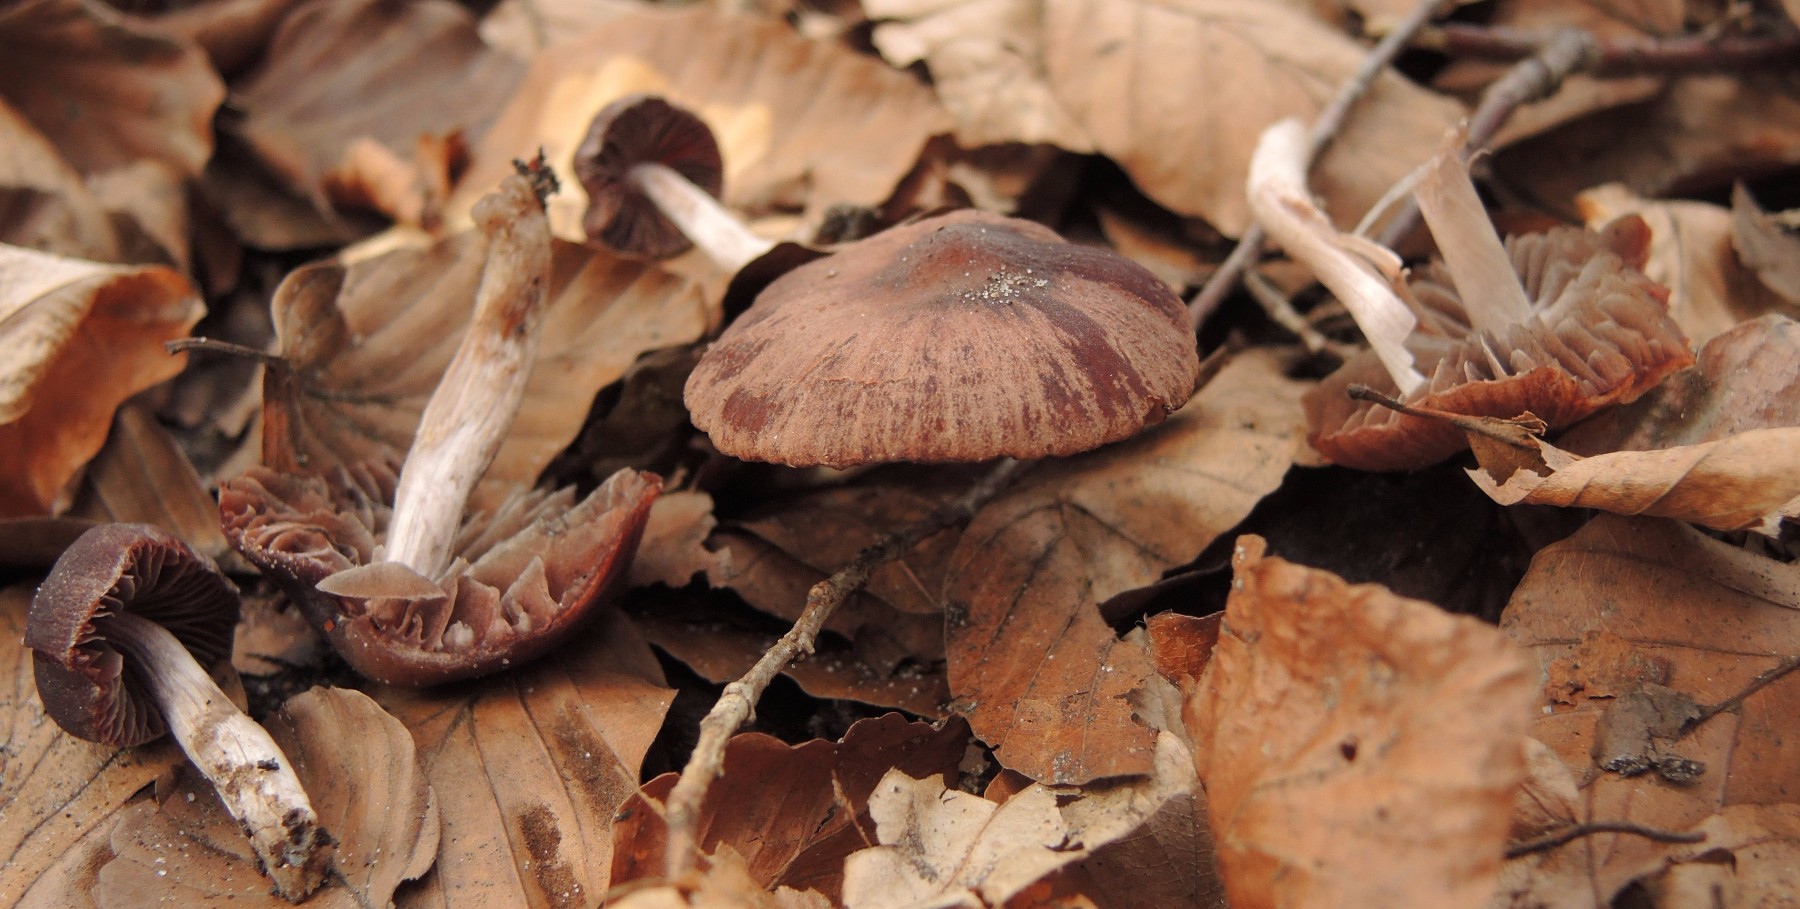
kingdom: Fungi
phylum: Basidiomycota
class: Agaricomycetes
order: Agaricales
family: Psathyrellaceae
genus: Psathyrella
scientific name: Psathyrella bipellis
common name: vinrød mørkhat
